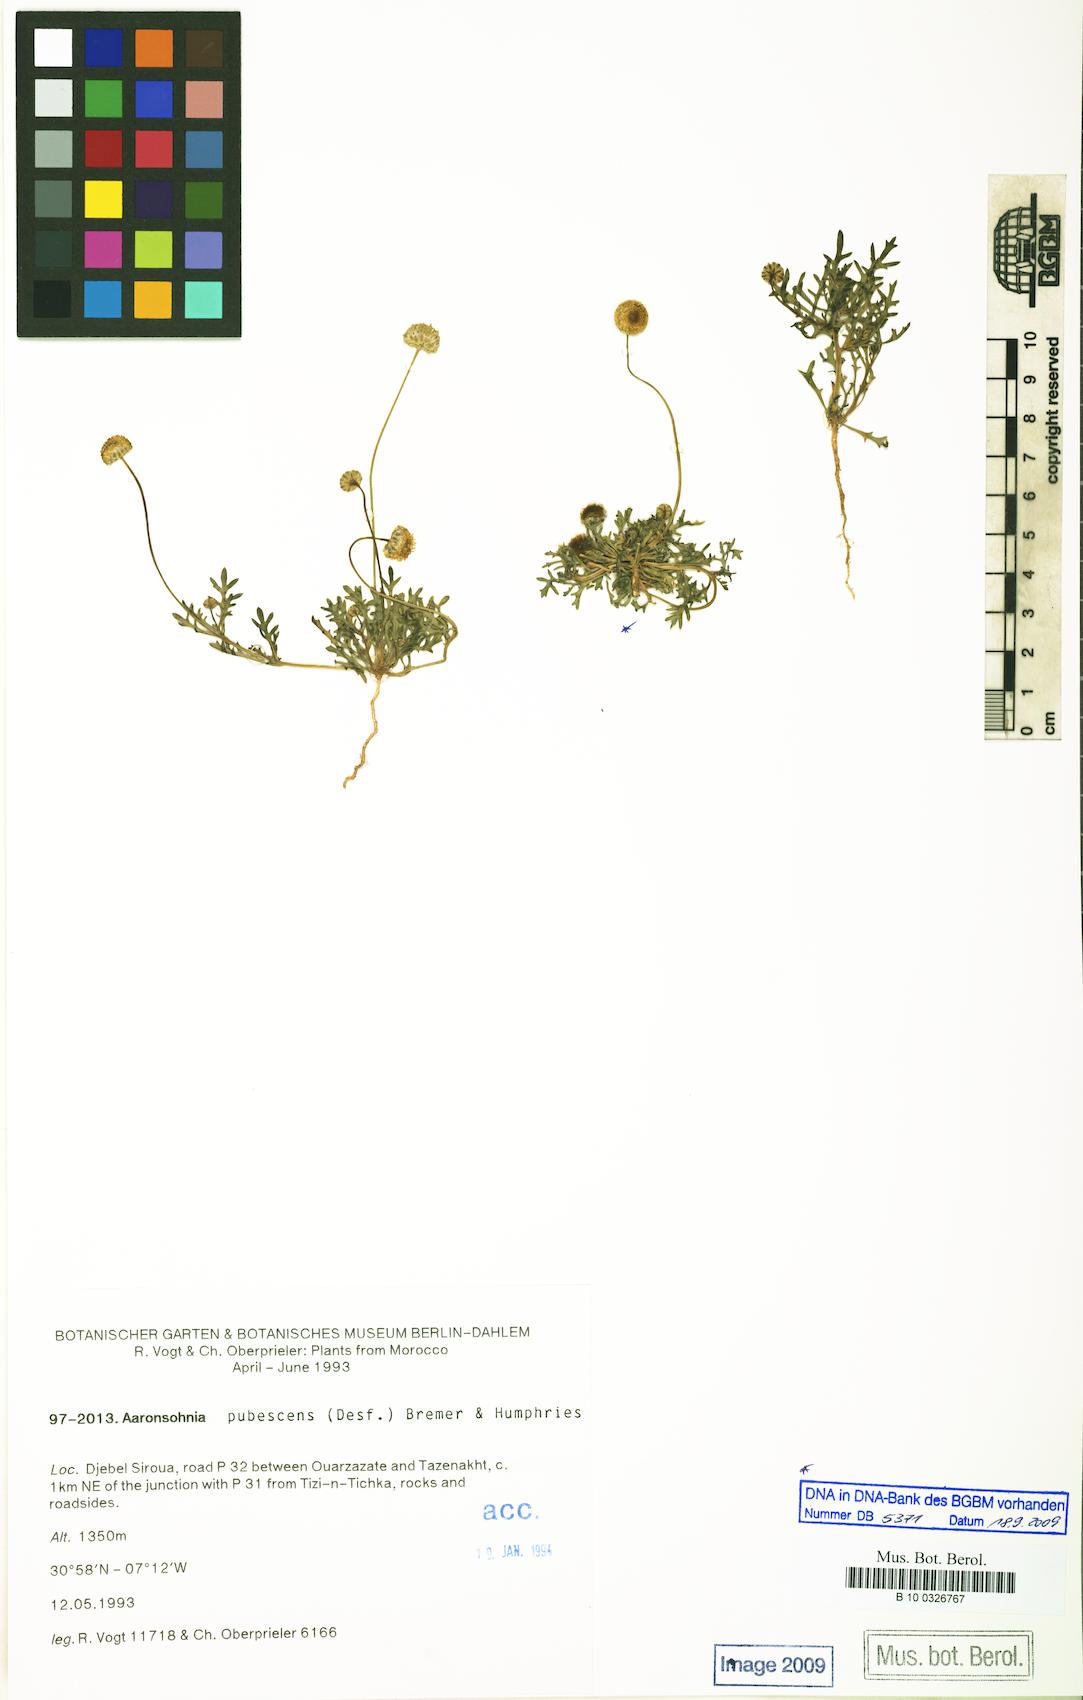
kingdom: Plantae
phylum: Tracheophyta
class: Magnoliopsida
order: Asterales
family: Asteraceae
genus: Otoglyphis
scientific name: Otoglyphis pubescens
